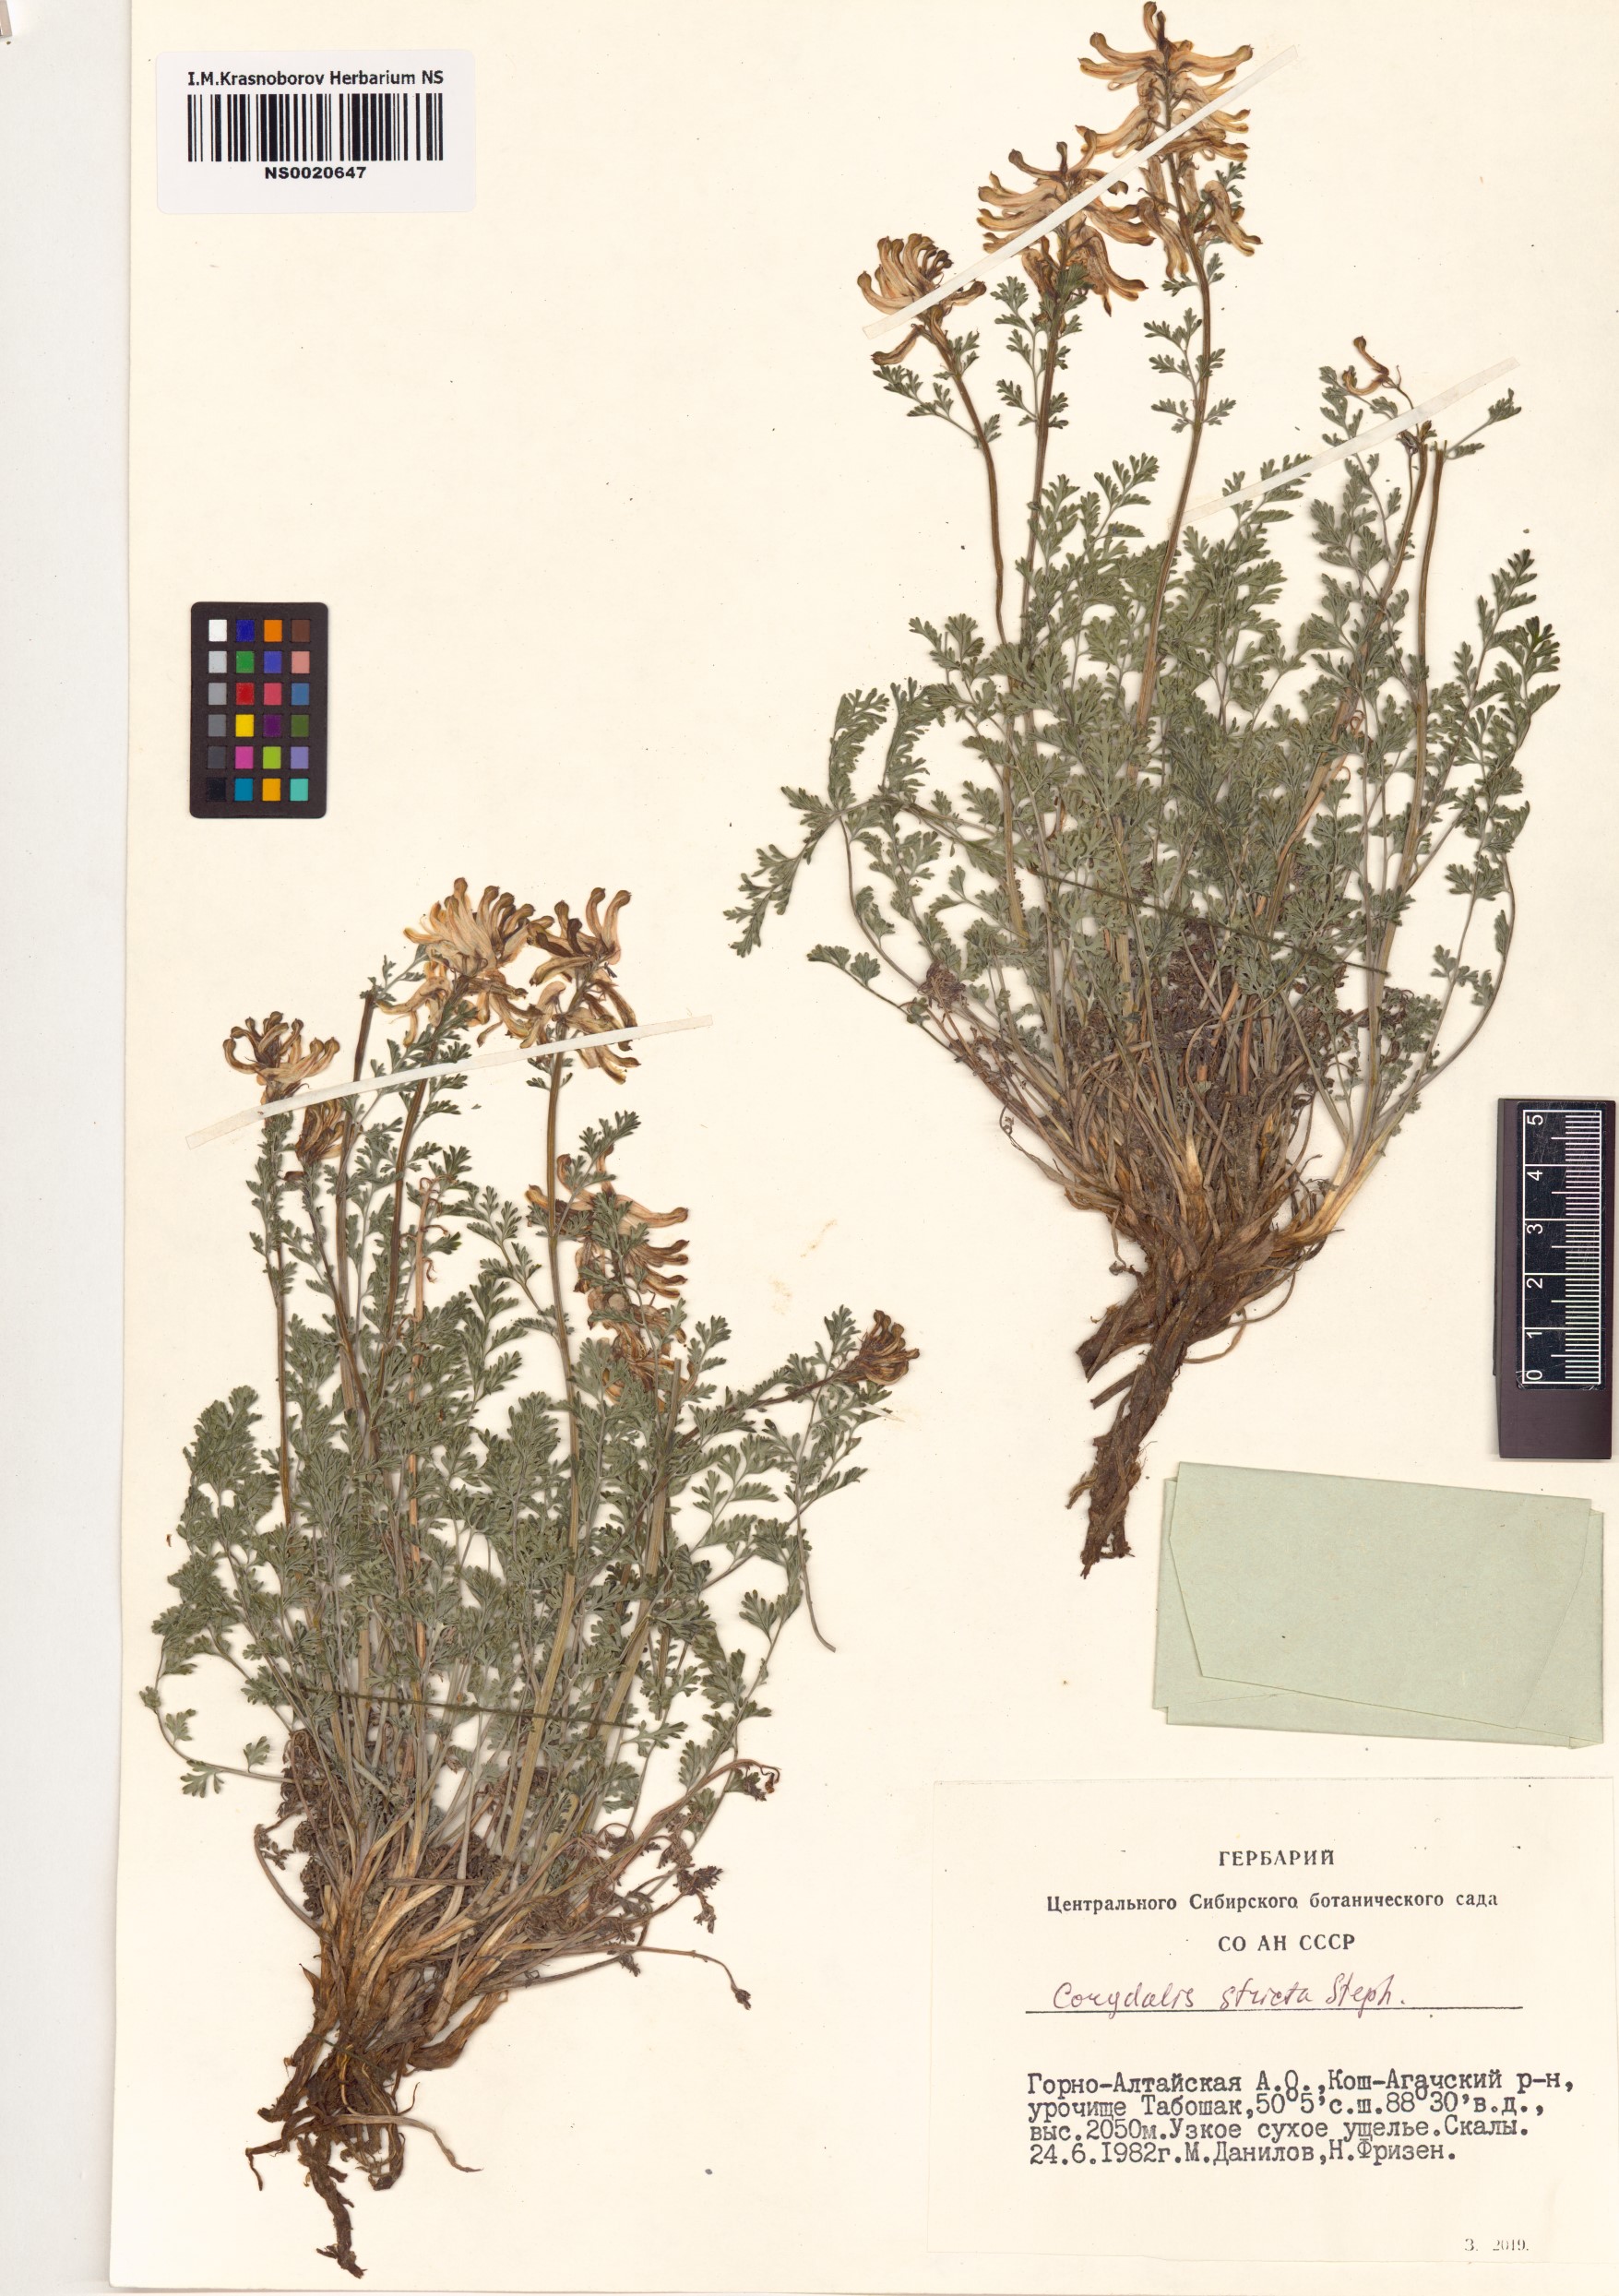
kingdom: Plantae
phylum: Tracheophyta
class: Magnoliopsida
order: Ranunculales
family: Papaveraceae
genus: Corydalis
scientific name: Corydalis stricta
